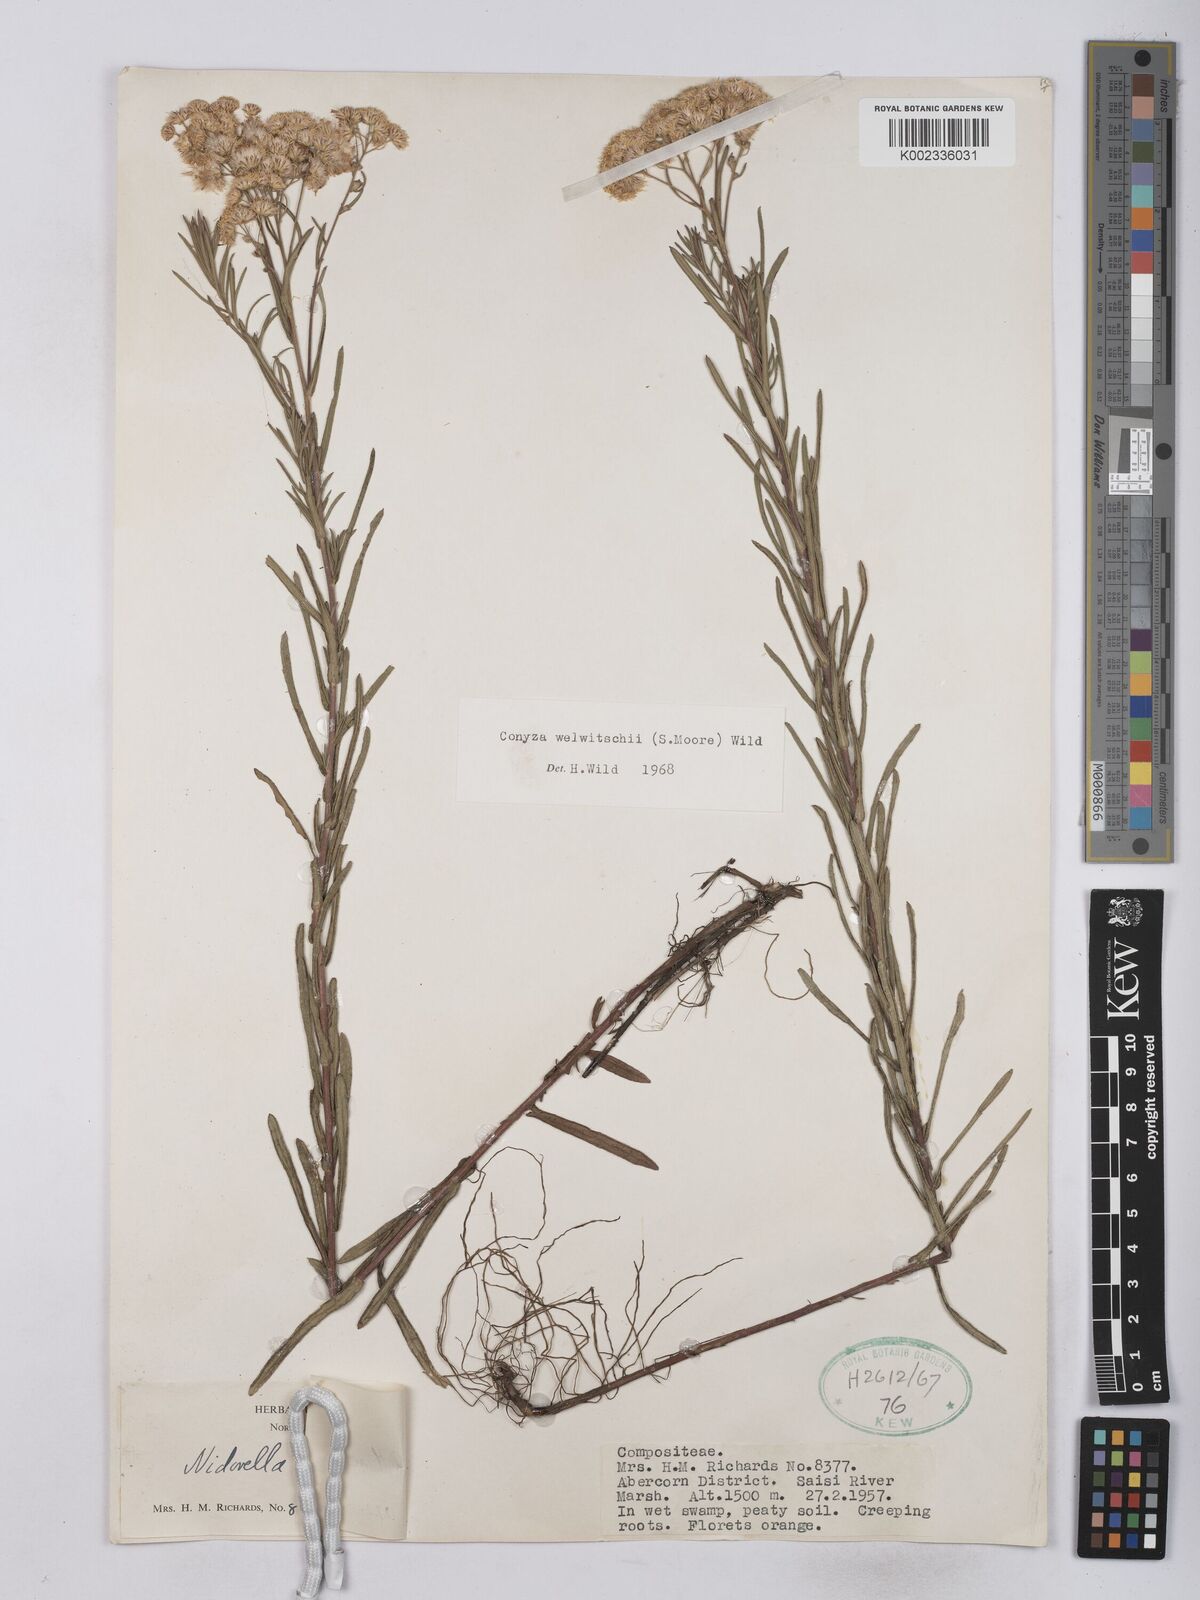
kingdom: Plantae
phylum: Tracheophyta
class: Magnoliopsida
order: Asterales
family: Asteraceae
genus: Nidorella
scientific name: Nidorella welwitschii
